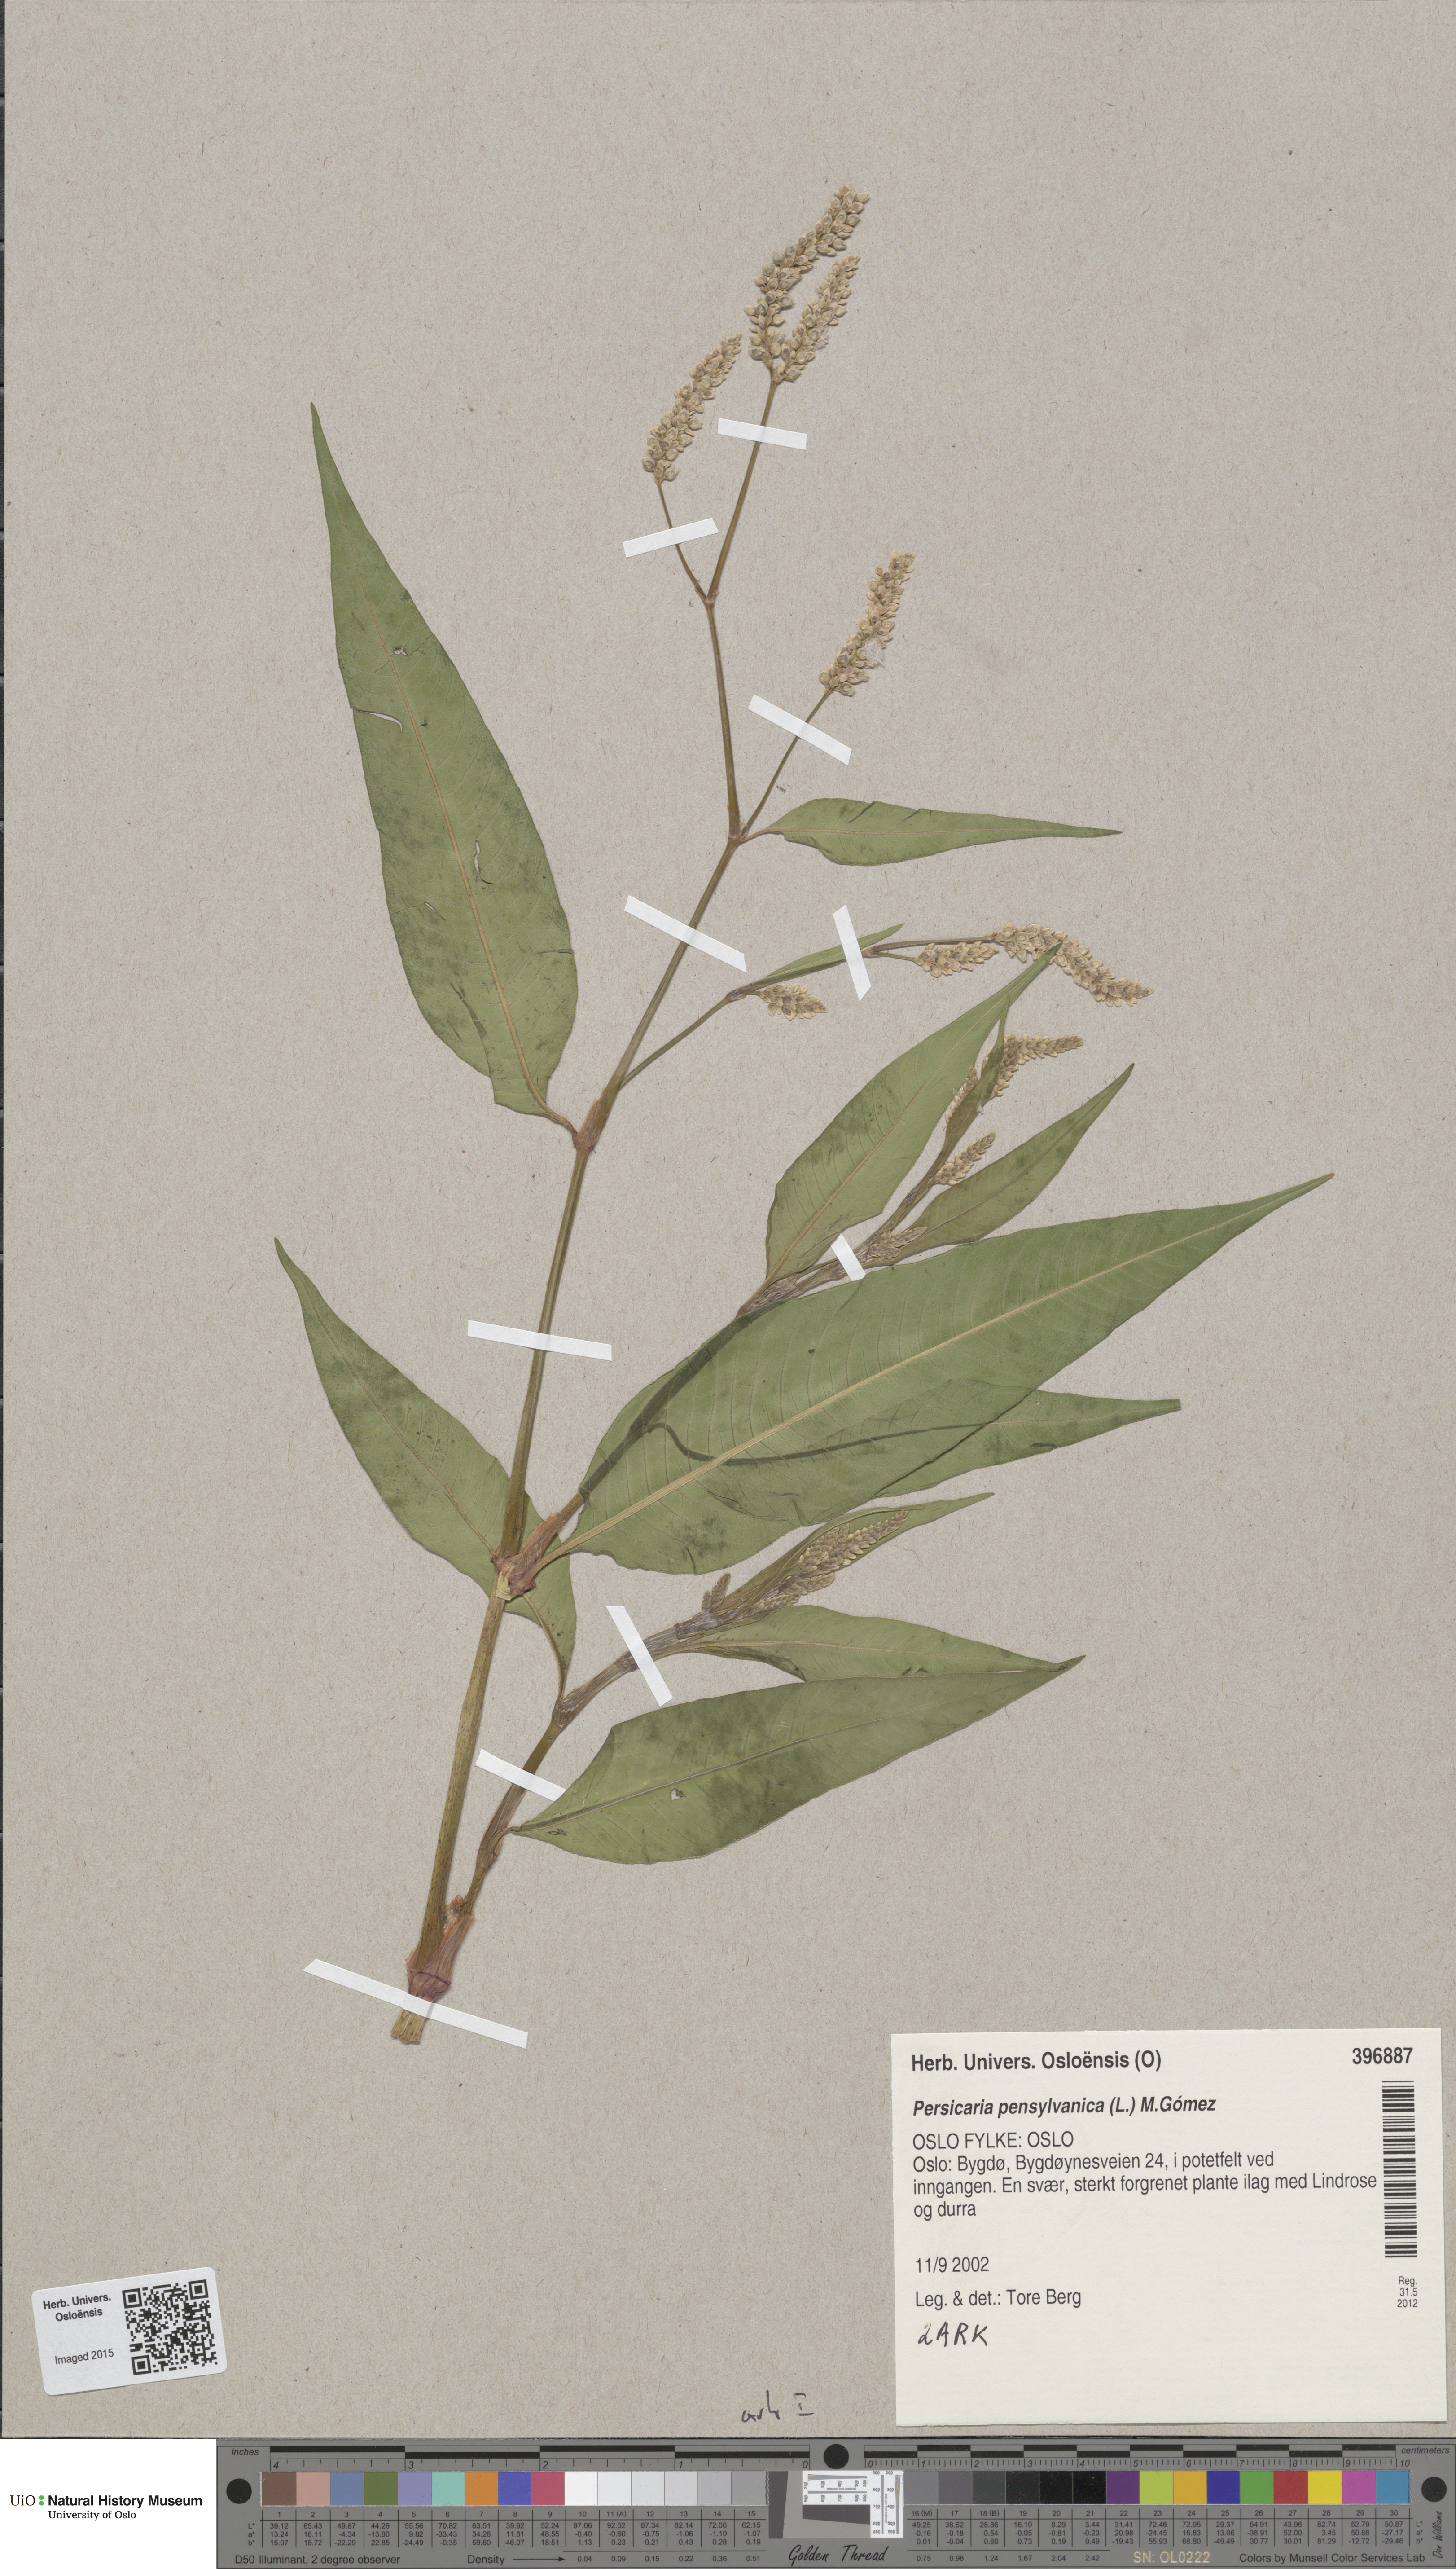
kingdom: Plantae
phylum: Tracheophyta
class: Magnoliopsida
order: Caryophyllales
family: Polygonaceae
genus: Persicaria
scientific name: Persicaria pensylvanica
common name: Pinkweed
